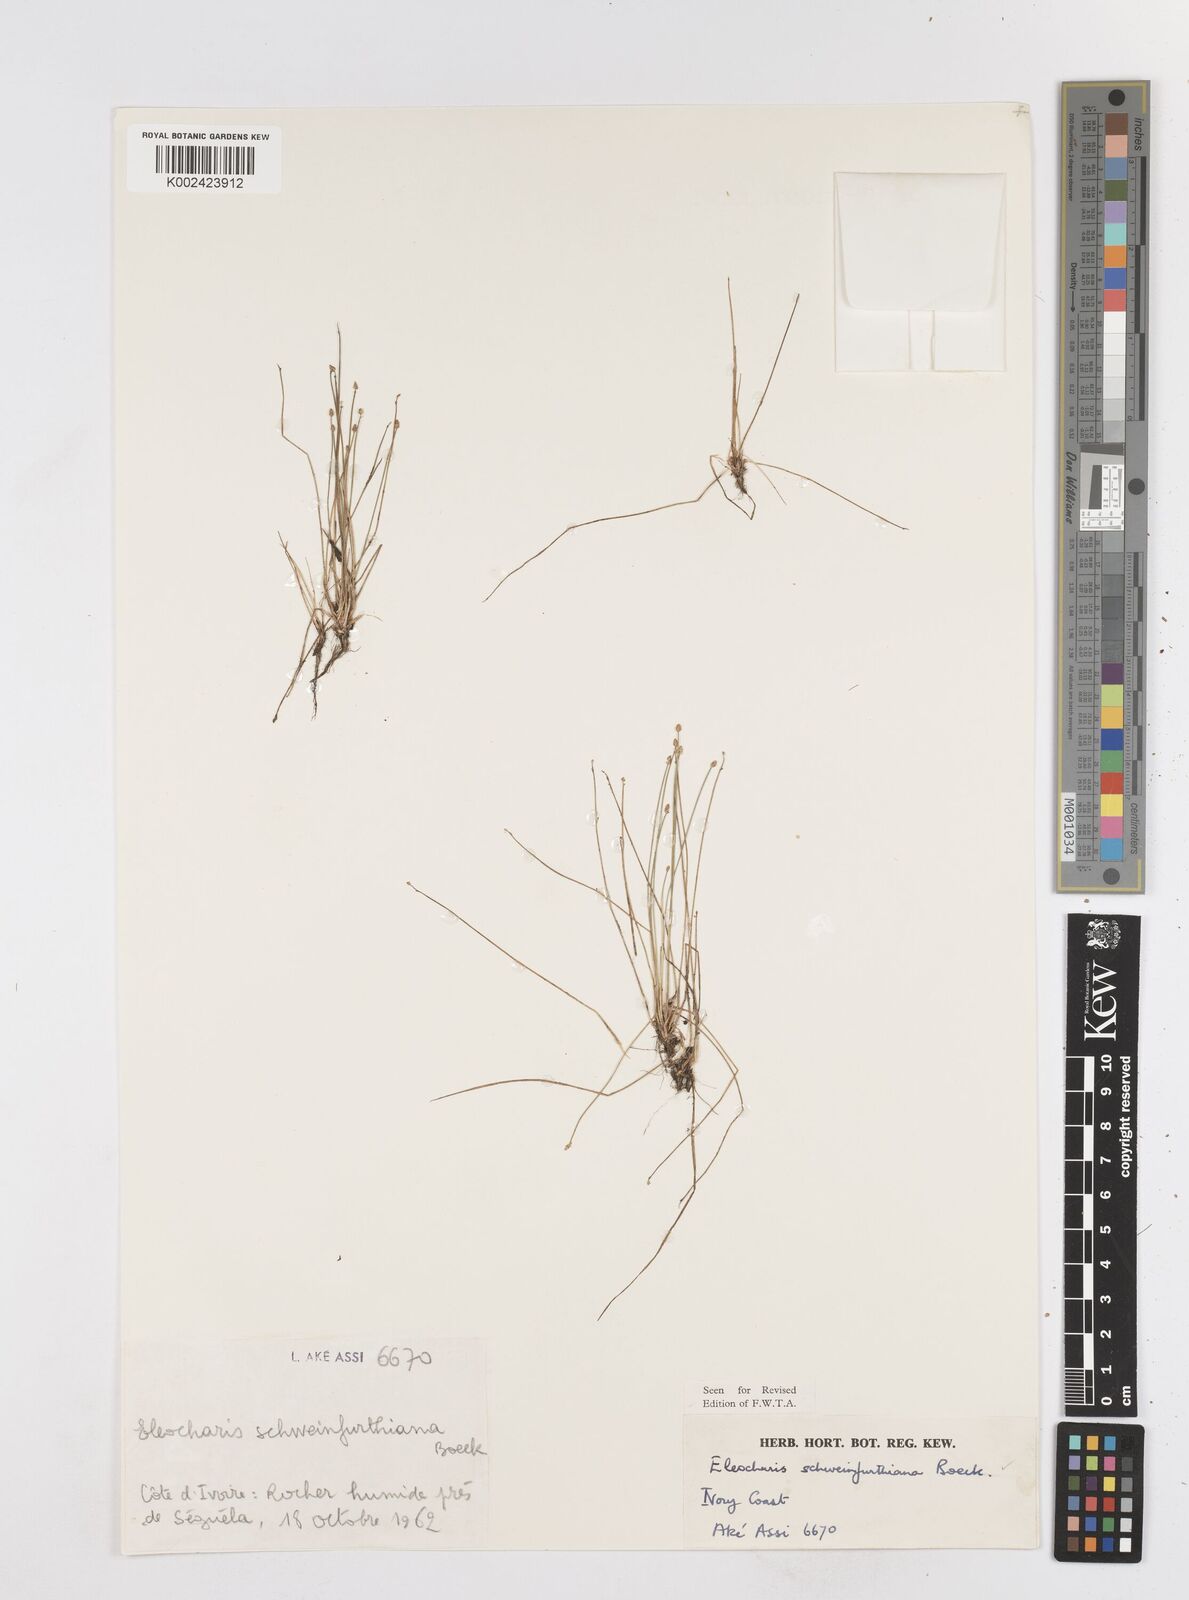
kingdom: Plantae
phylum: Tracheophyta
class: Liliopsida
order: Poales
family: Cyperaceae
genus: Eleocharis
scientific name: Eleocharis setifolia
